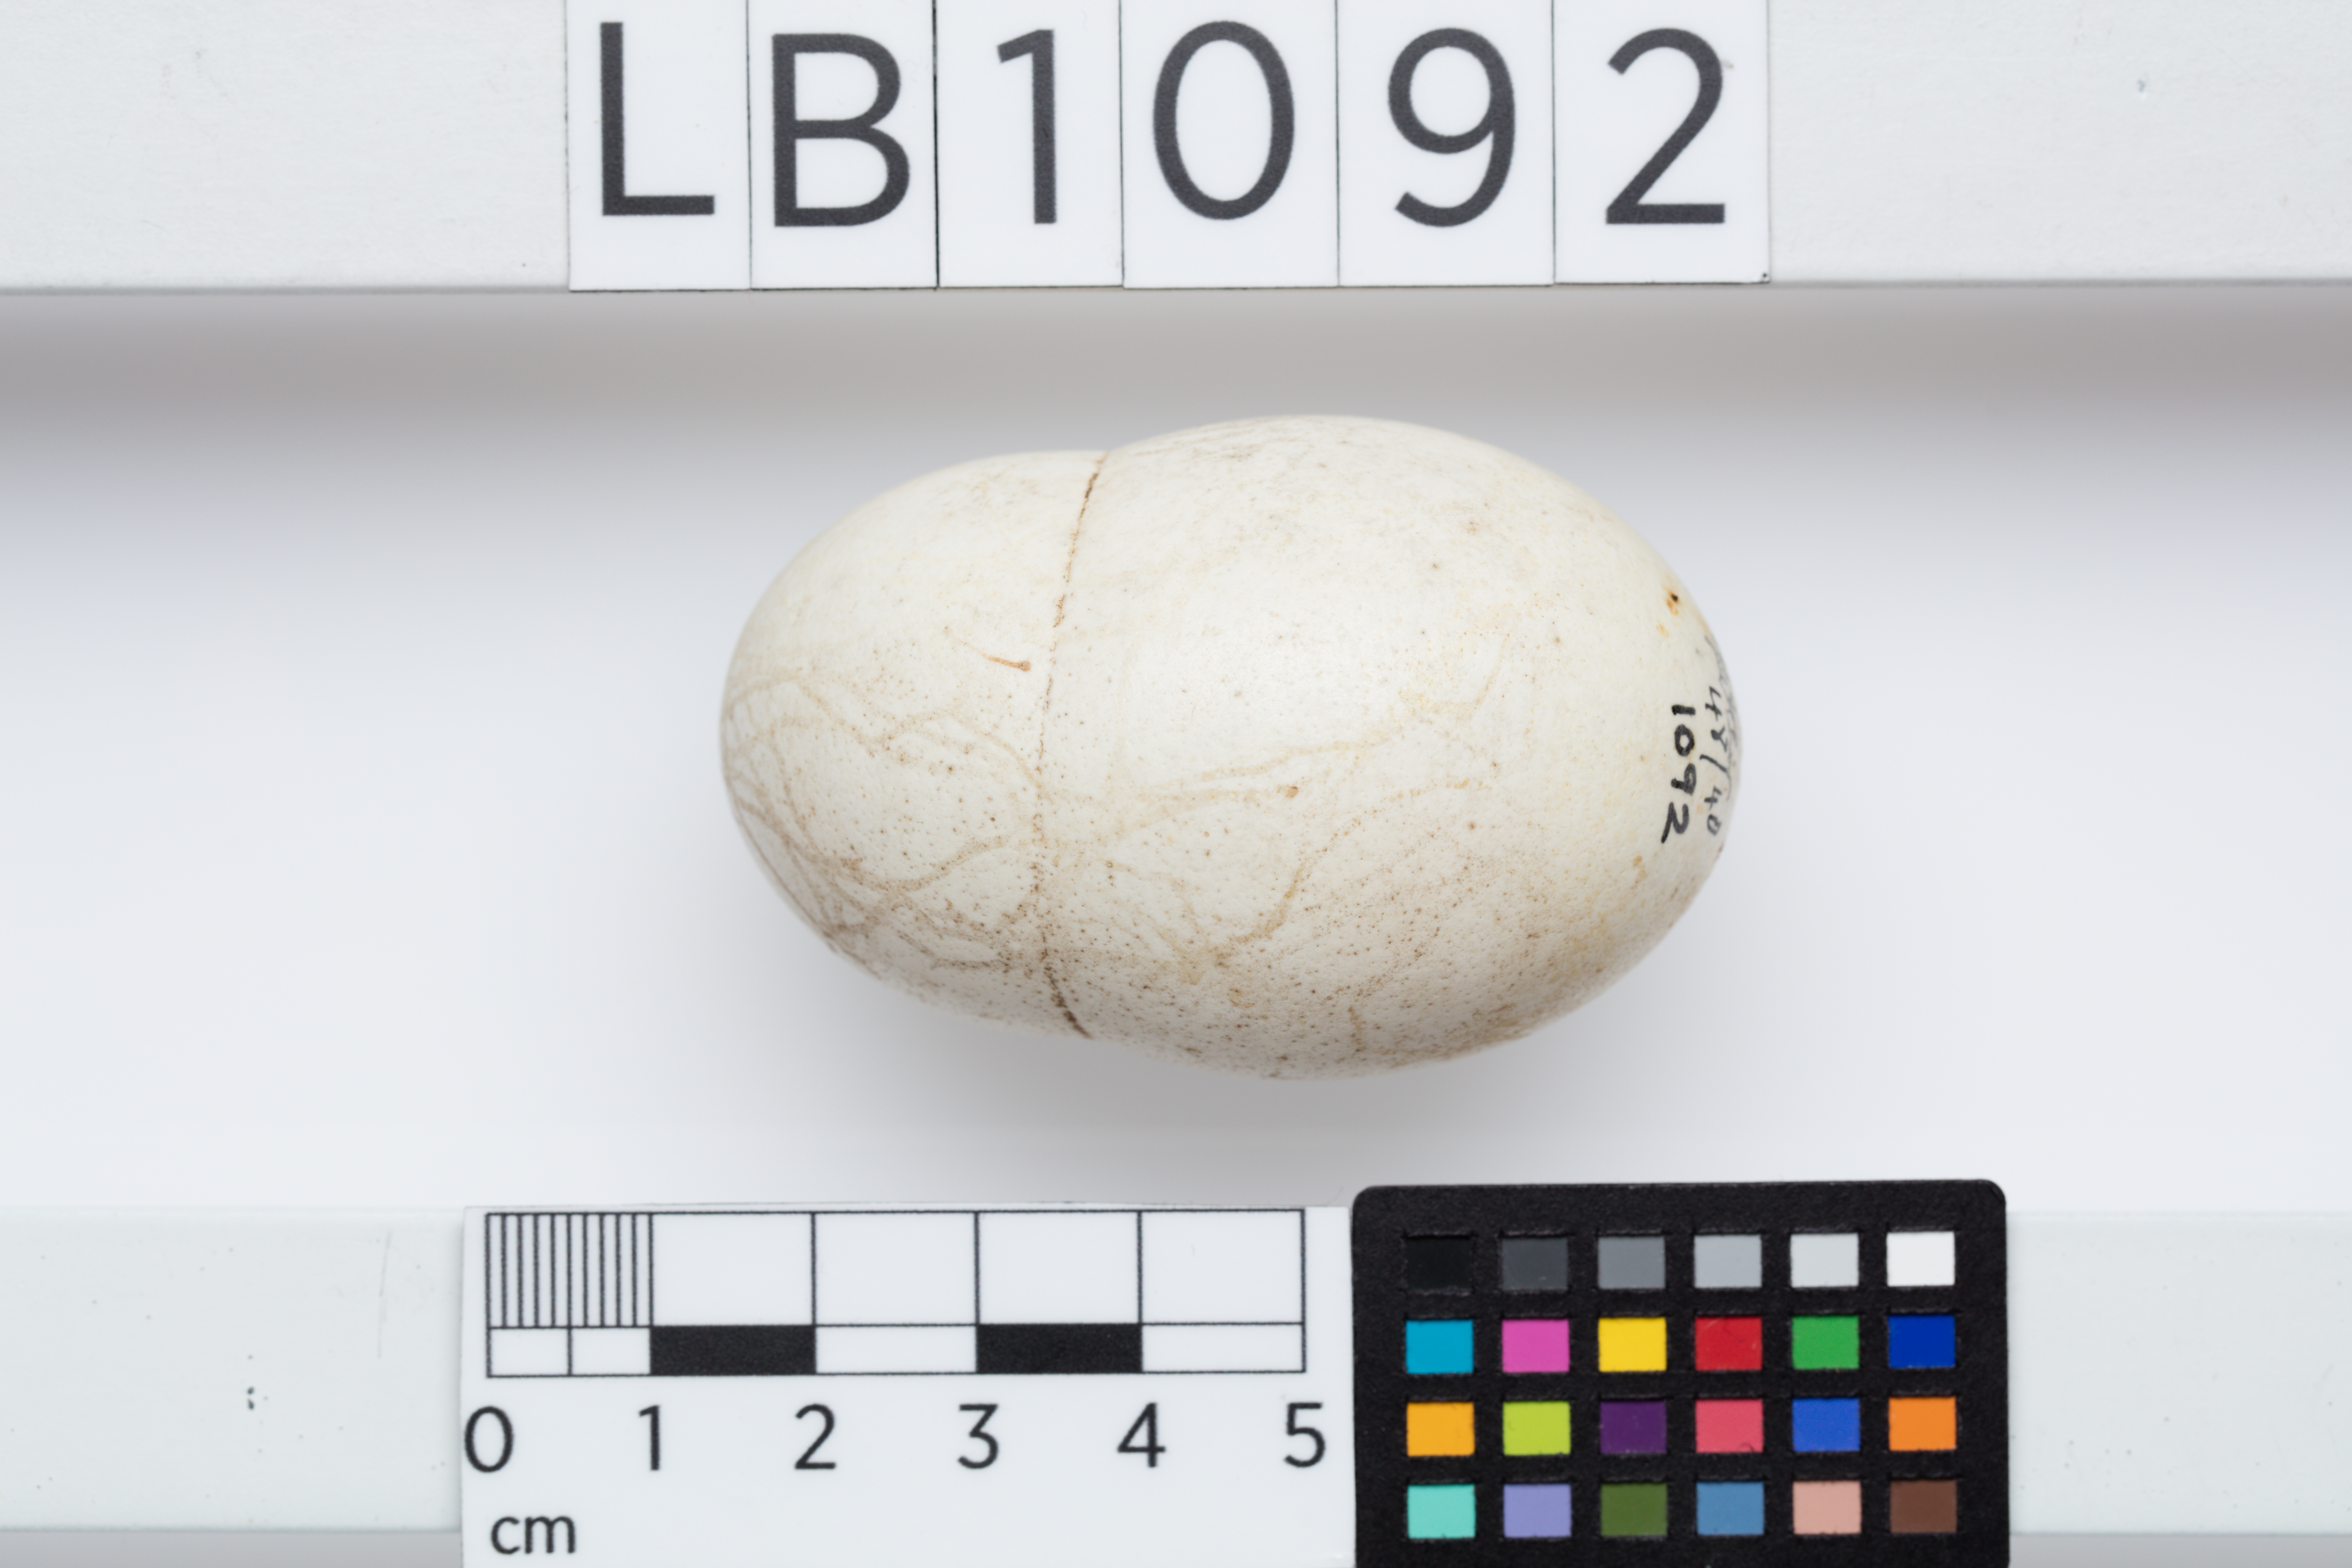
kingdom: Animalia
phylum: Chordata
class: Aves
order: Galliformes
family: Phasianidae
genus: Gallus
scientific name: Gallus gallus
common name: Red junglefowl
